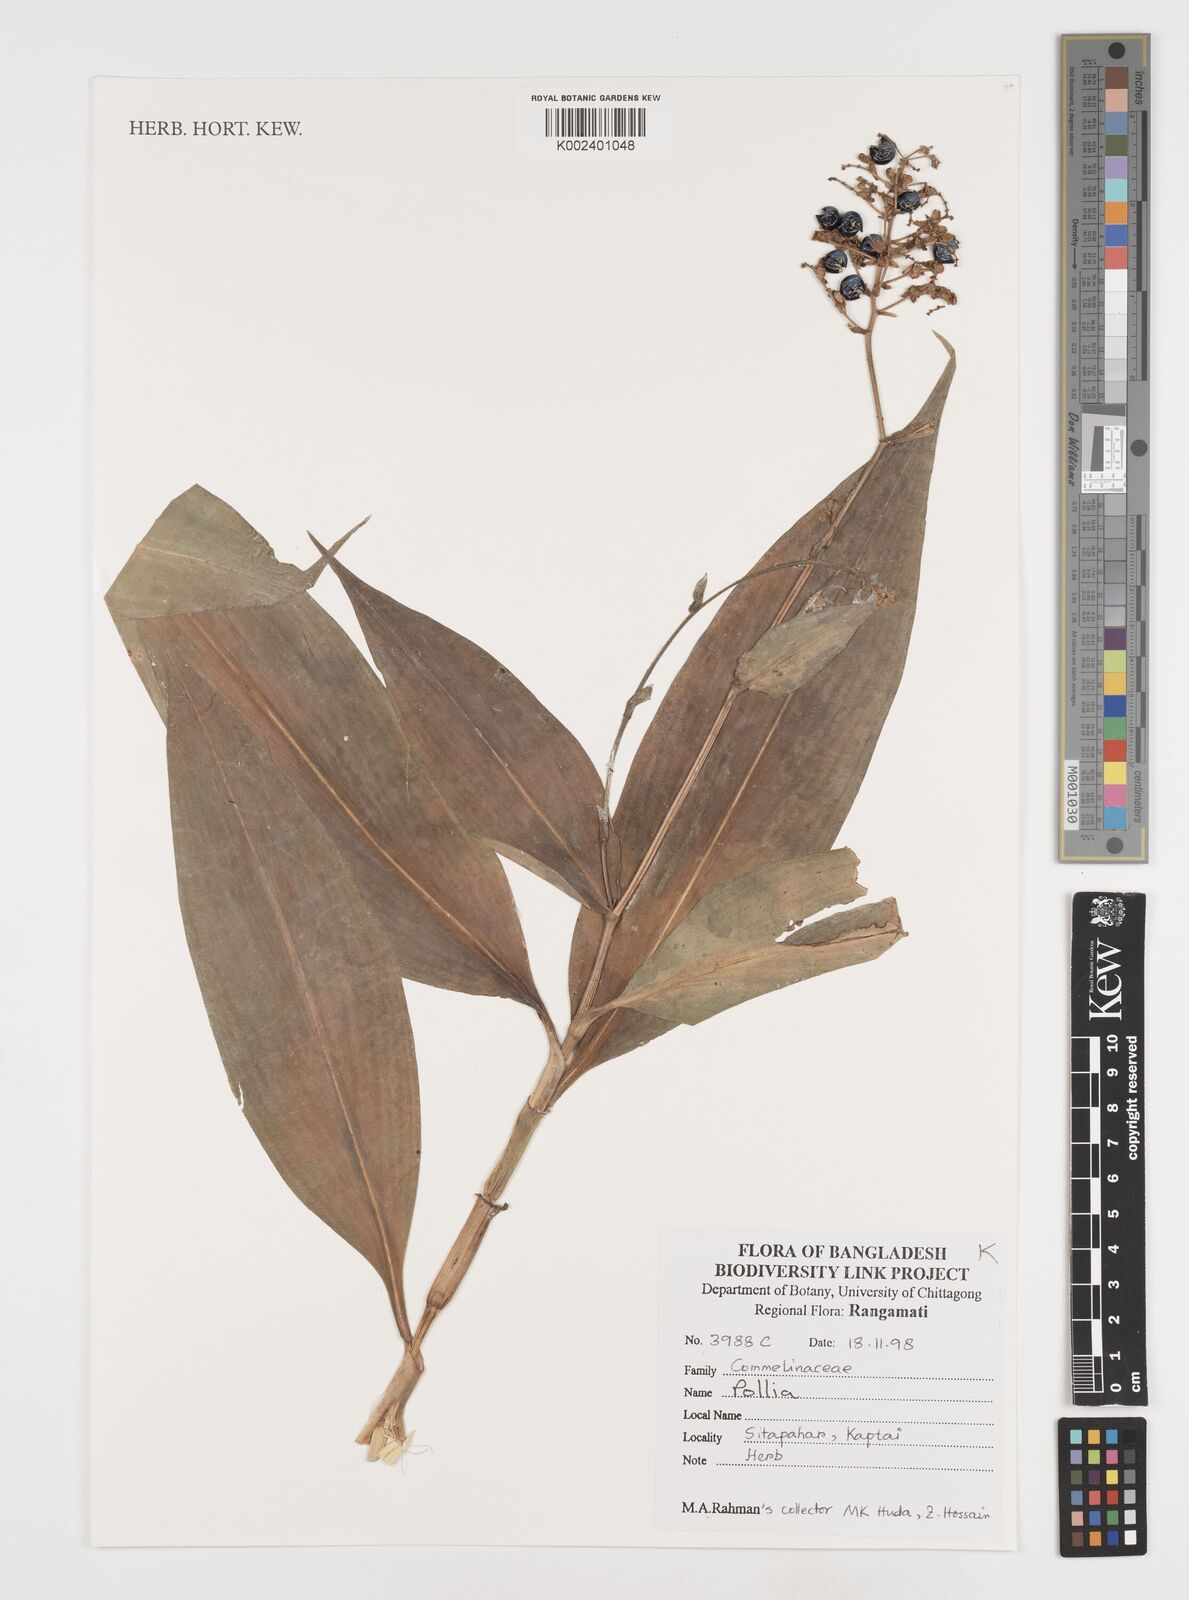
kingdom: Plantae
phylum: Tracheophyta
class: Liliopsida
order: Commelinales
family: Commelinaceae
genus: Pollia
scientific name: Pollia secundiflora
